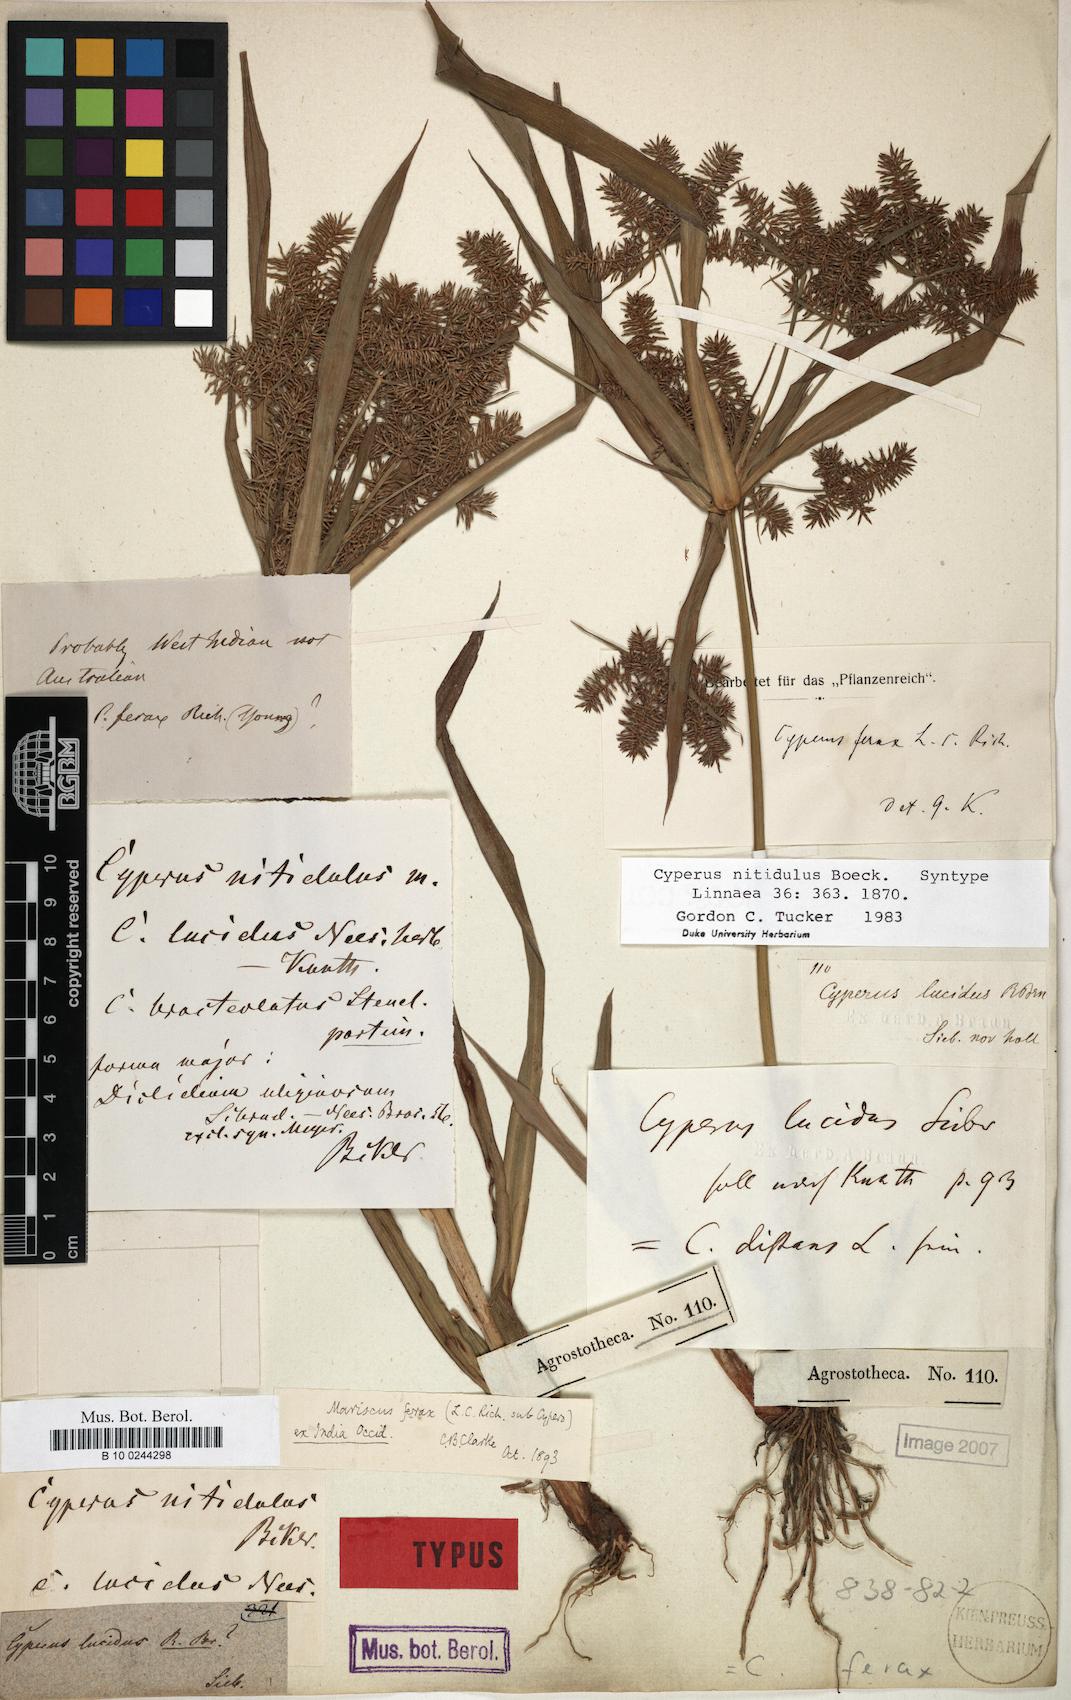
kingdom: Plantae
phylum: Tracheophyta
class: Liliopsida
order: Poales
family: Cyperaceae
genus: Cyperus
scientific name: Cyperus odoratus
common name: Fragrant flatsedge
